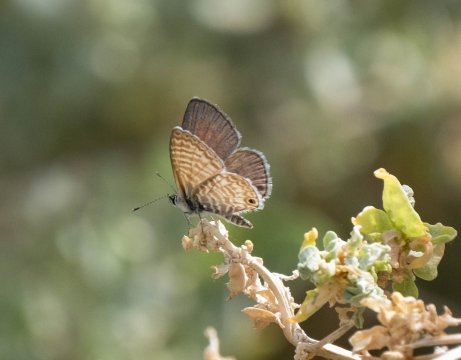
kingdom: Animalia
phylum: Arthropoda
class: Insecta
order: Lepidoptera
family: Lycaenidae
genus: Leptotes
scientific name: Leptotes marina
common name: Marine Blue
